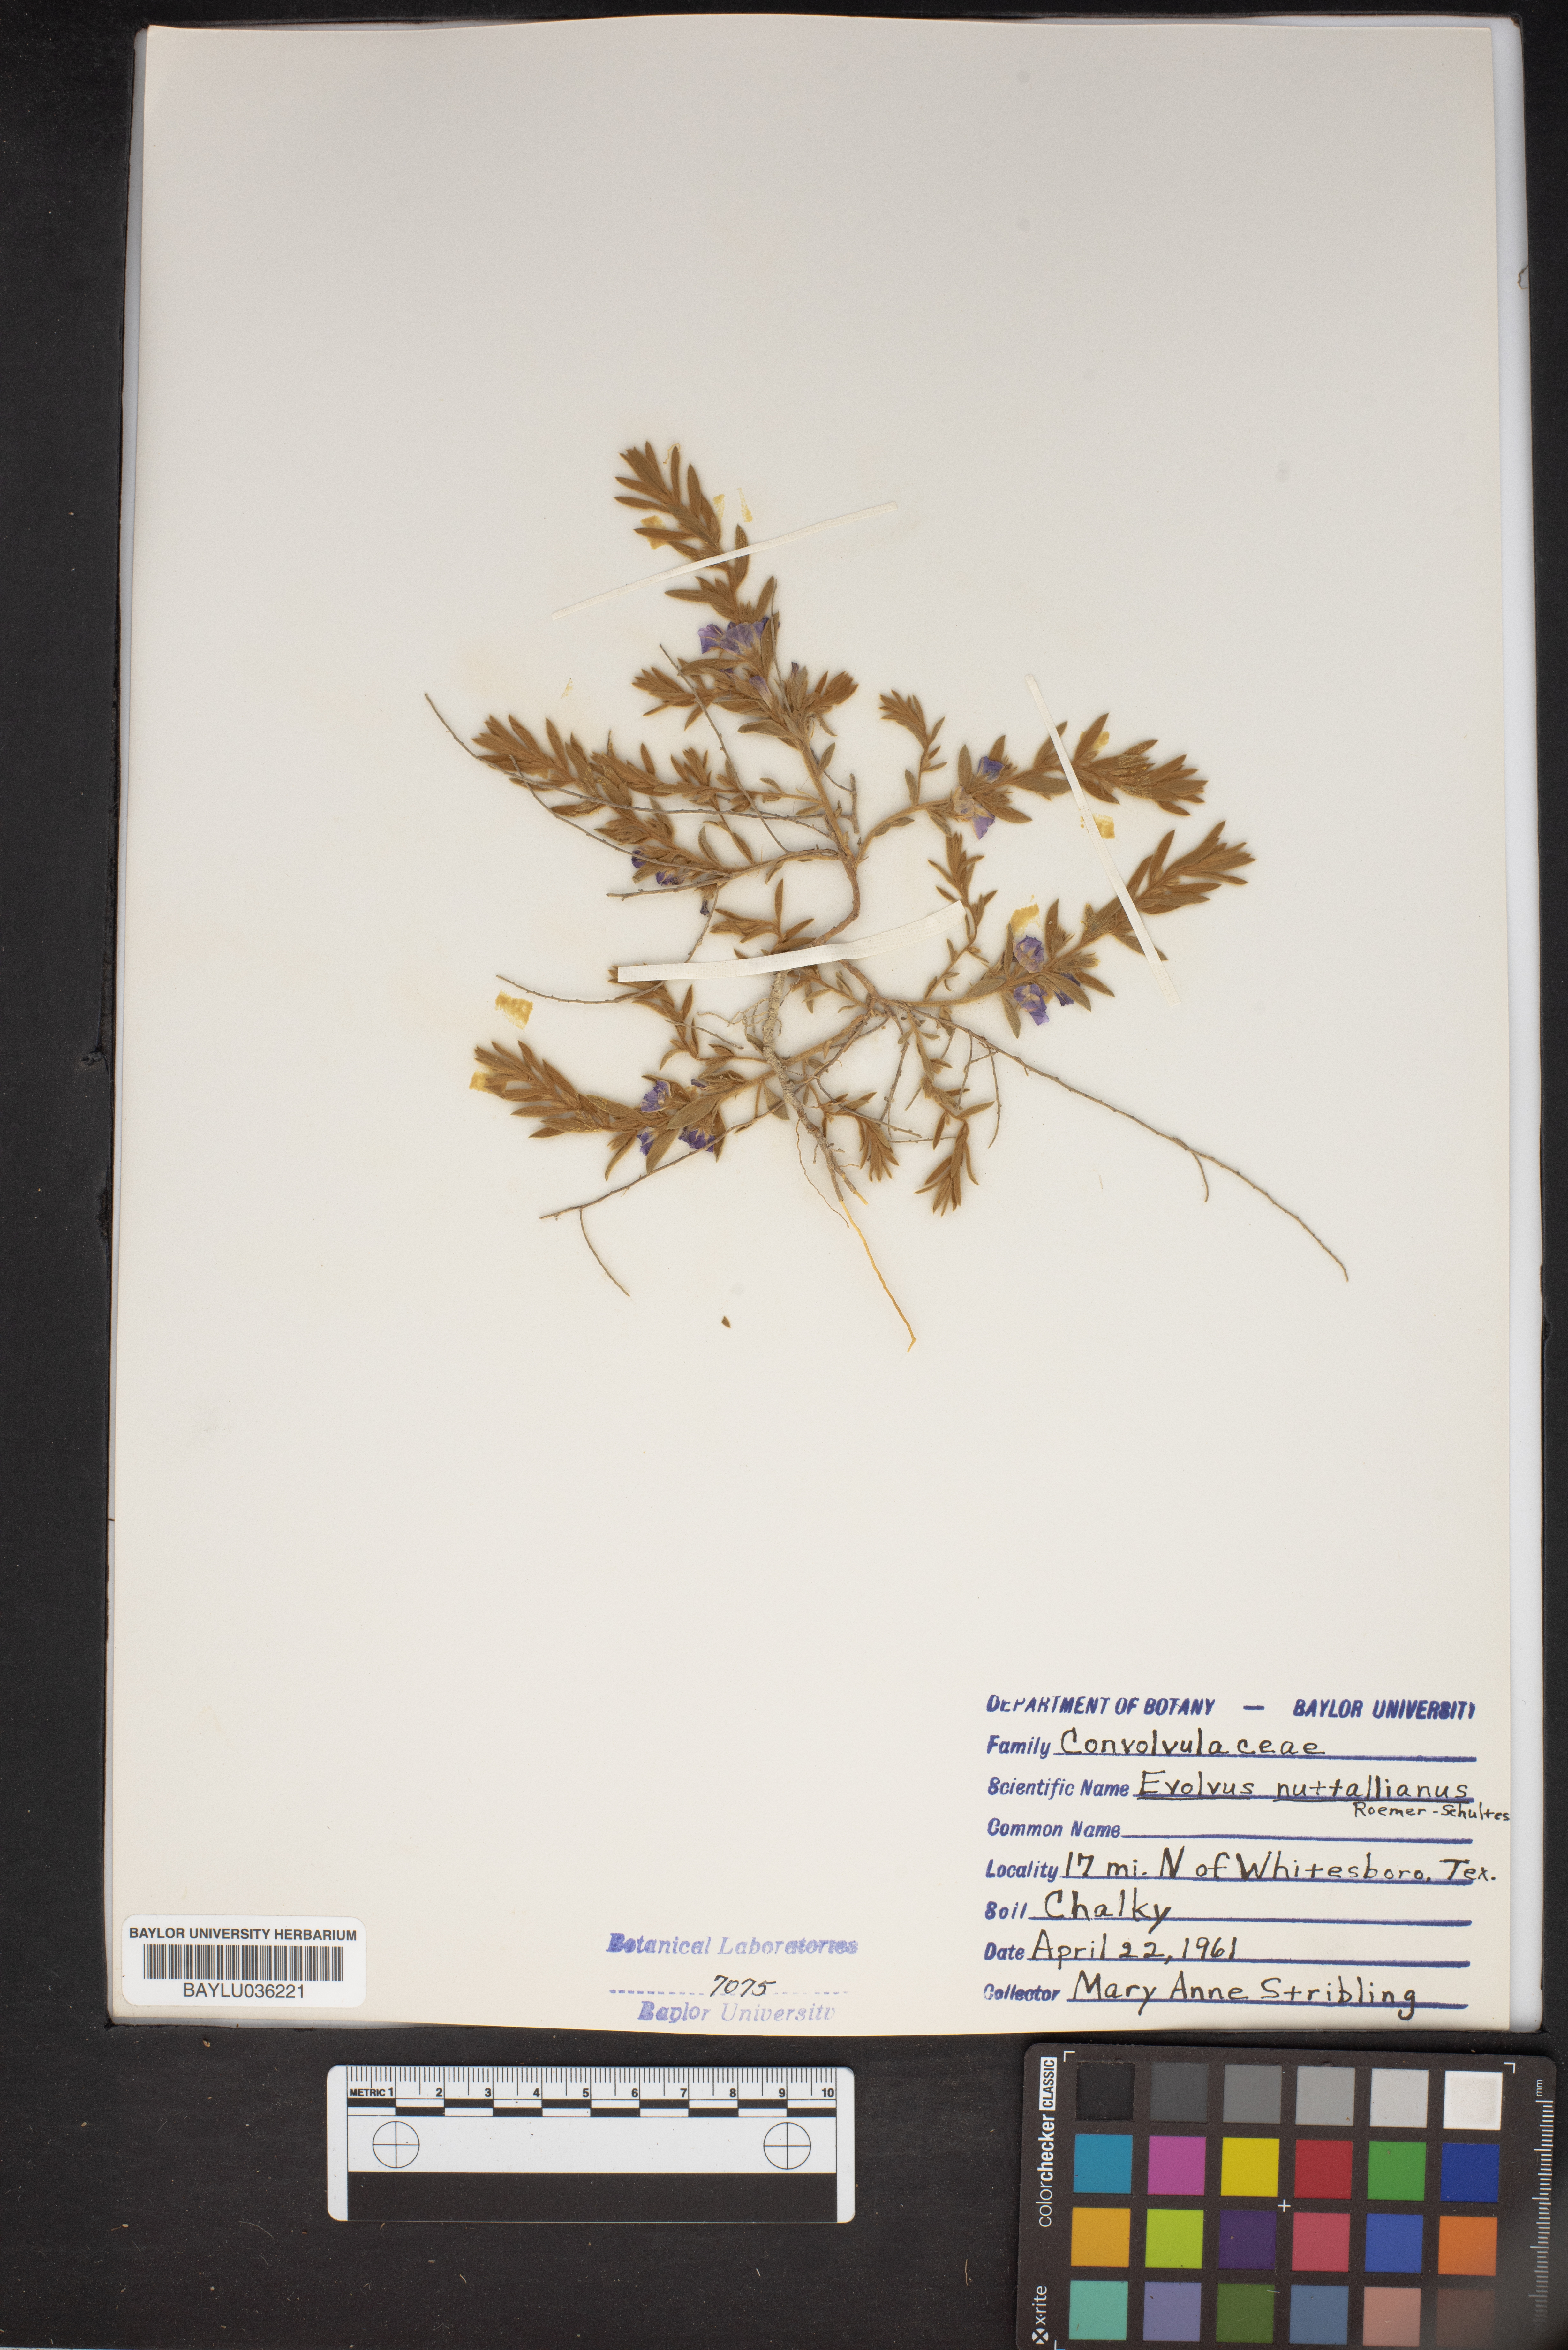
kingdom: Plantae
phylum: Tracheophyta
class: Magnoliopsida
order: Solanales
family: Convolvulaceae
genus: Evolvulus
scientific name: Evolvulus nuttallianus
